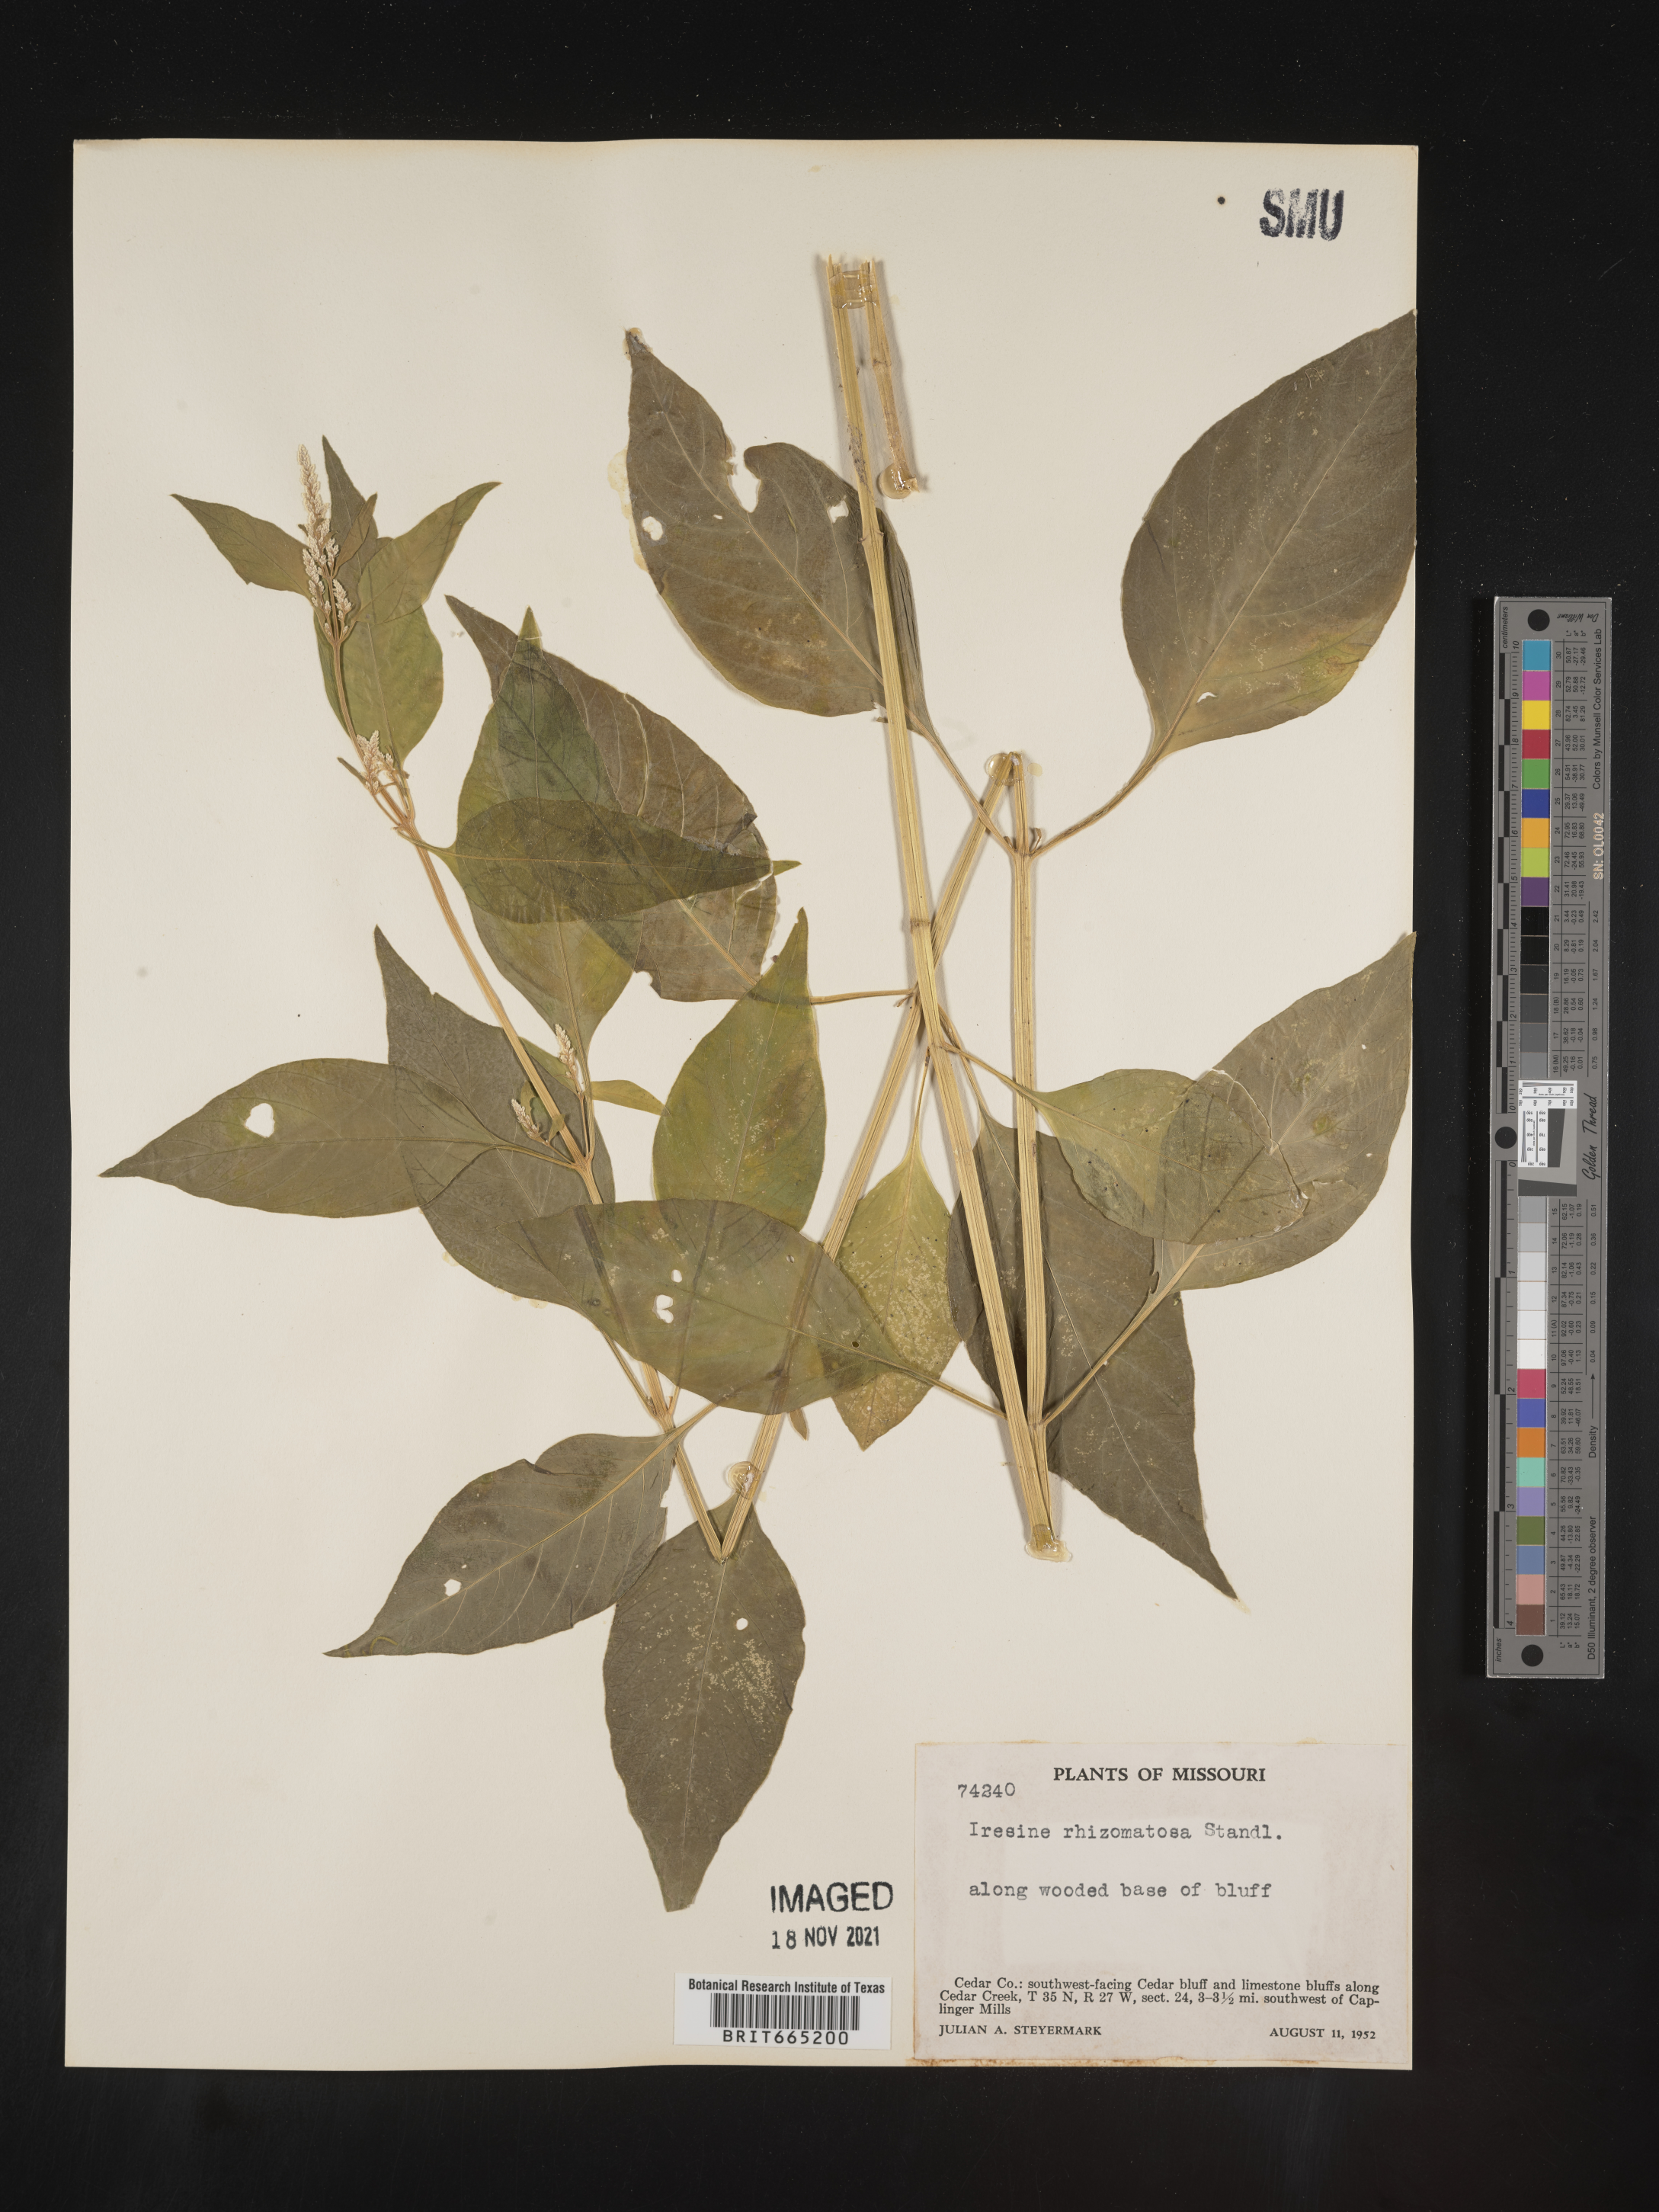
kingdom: Plantae
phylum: Tracheophyta
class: Magnoliopsida
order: Caryophyllales
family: Amaranthaceae
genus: Iresine
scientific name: Iresine rhizomatosa
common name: Juda's-bush
